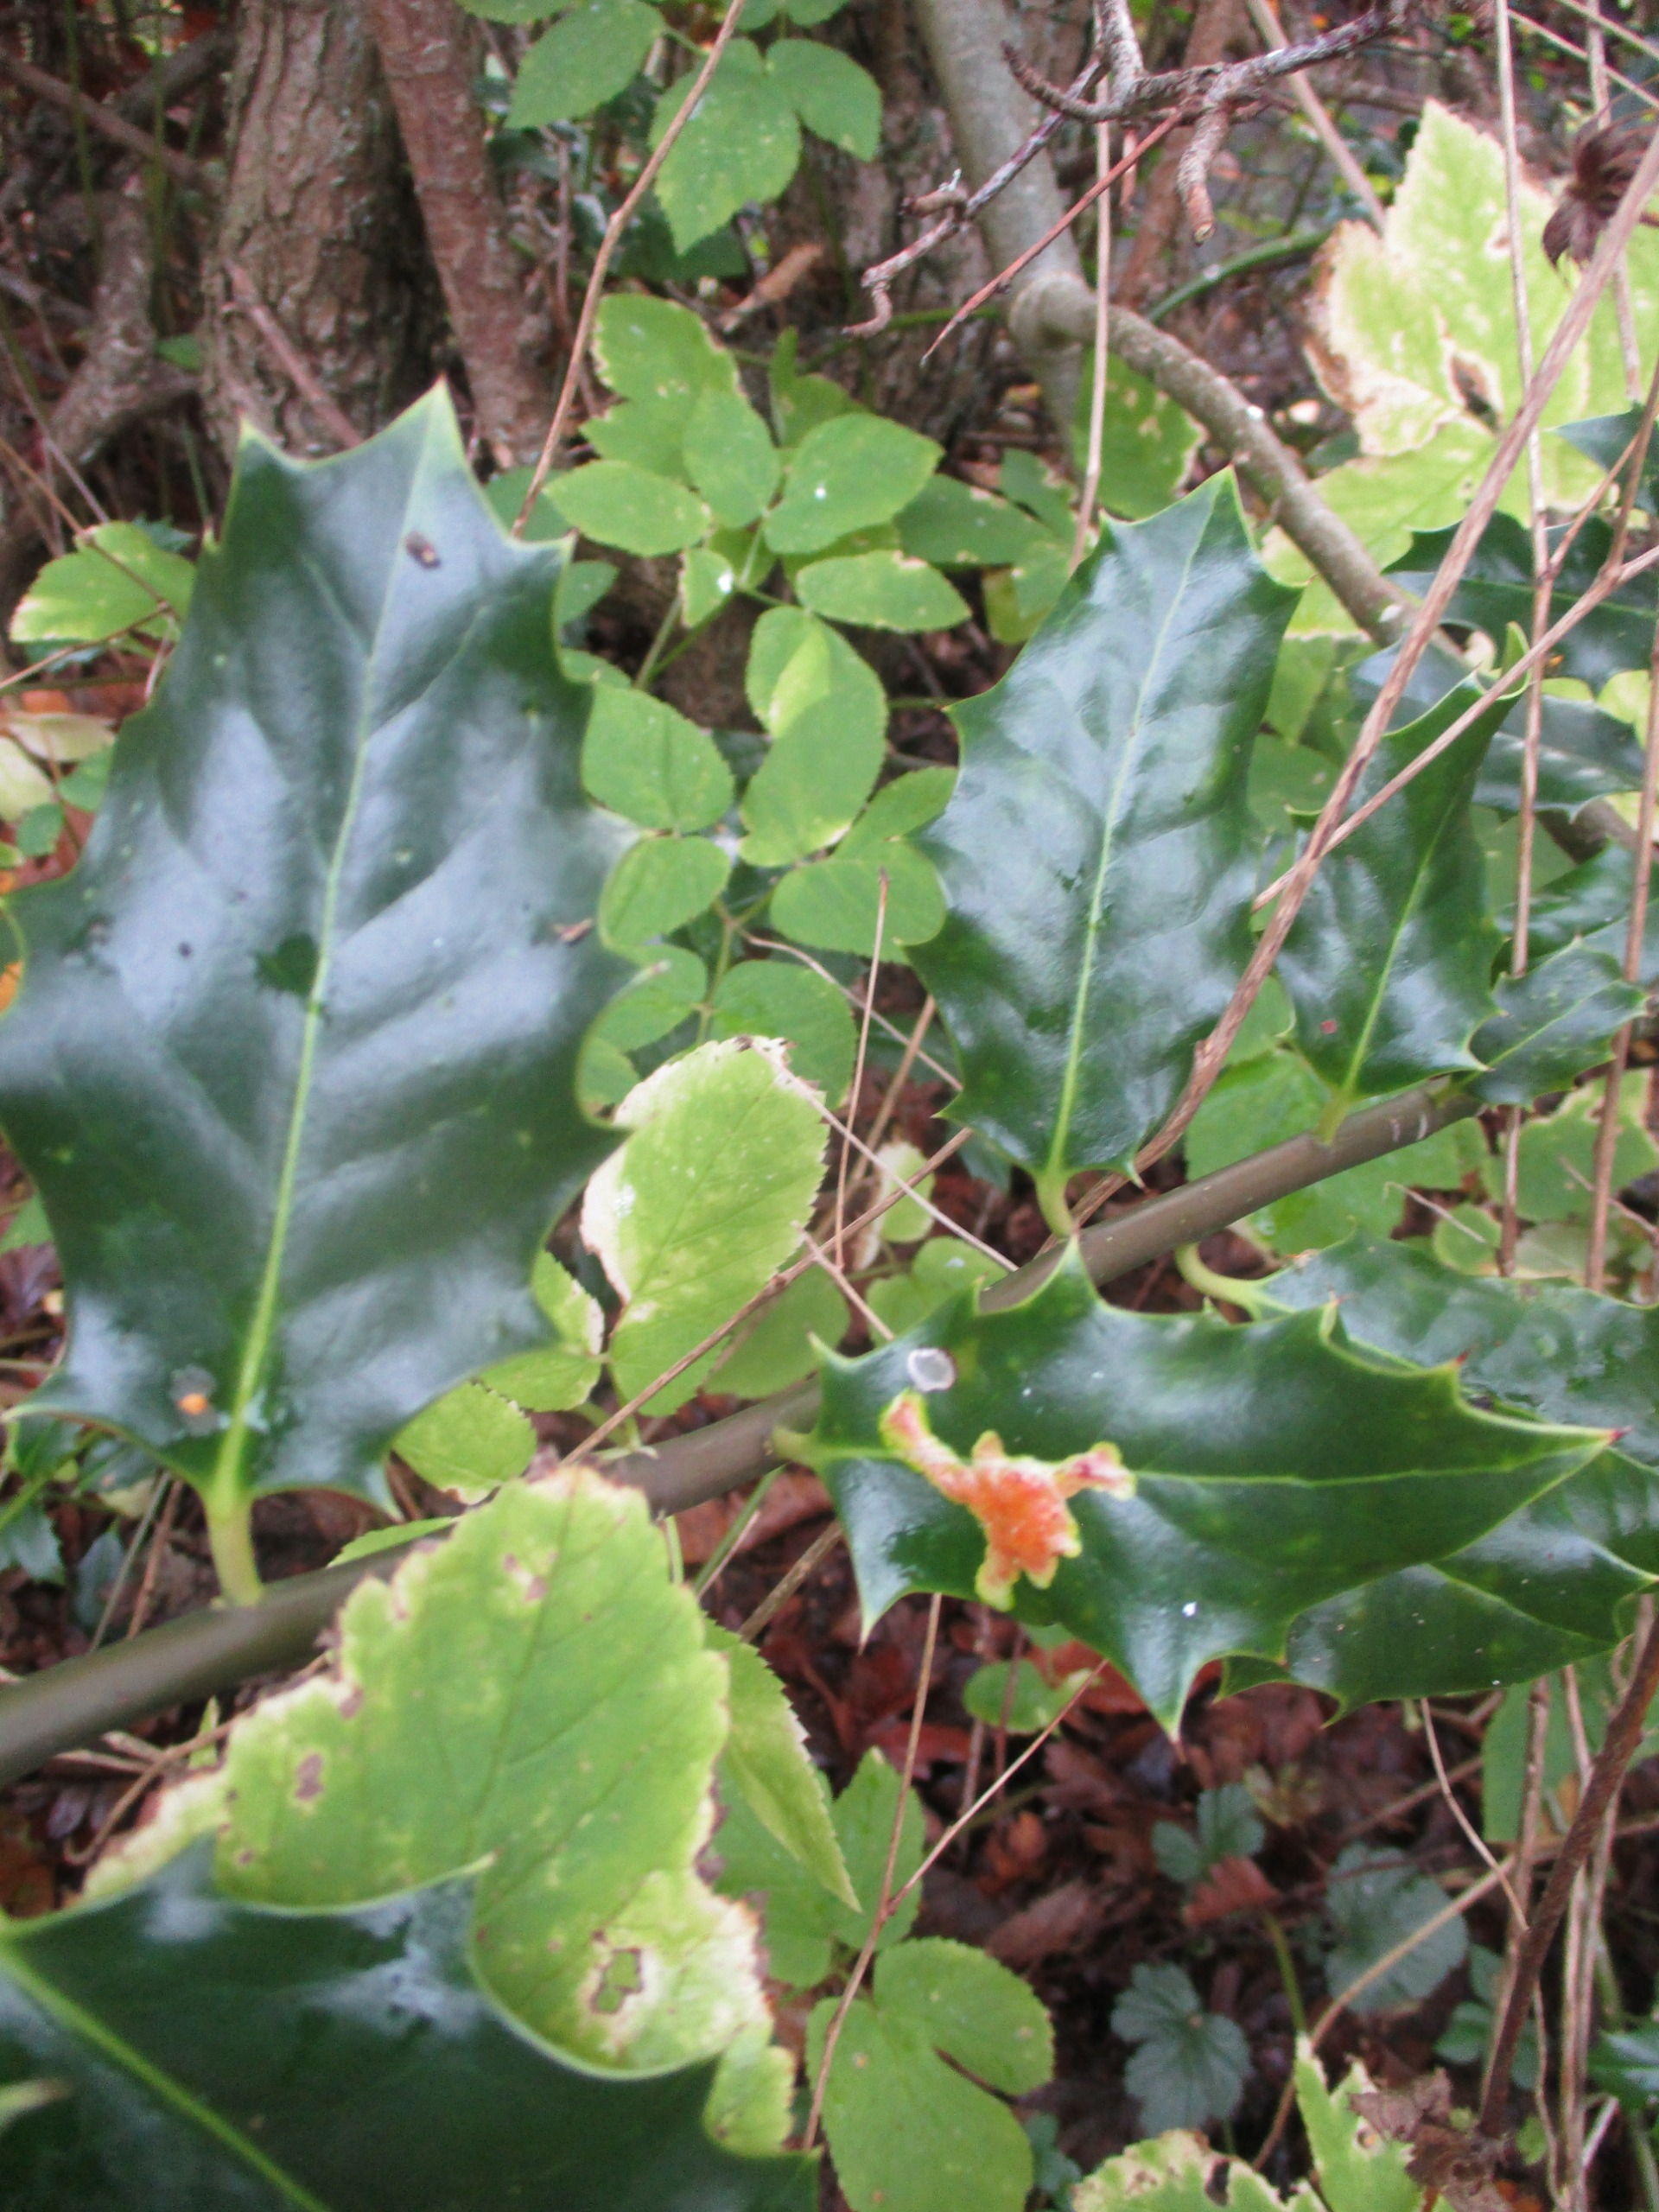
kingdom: Plantae
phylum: Tracheophyta
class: Magnoliopsida
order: Aquifoliales
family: Aquifoliaceae
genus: Ilex
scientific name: Ilex aquifolium
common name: Kristtorn
